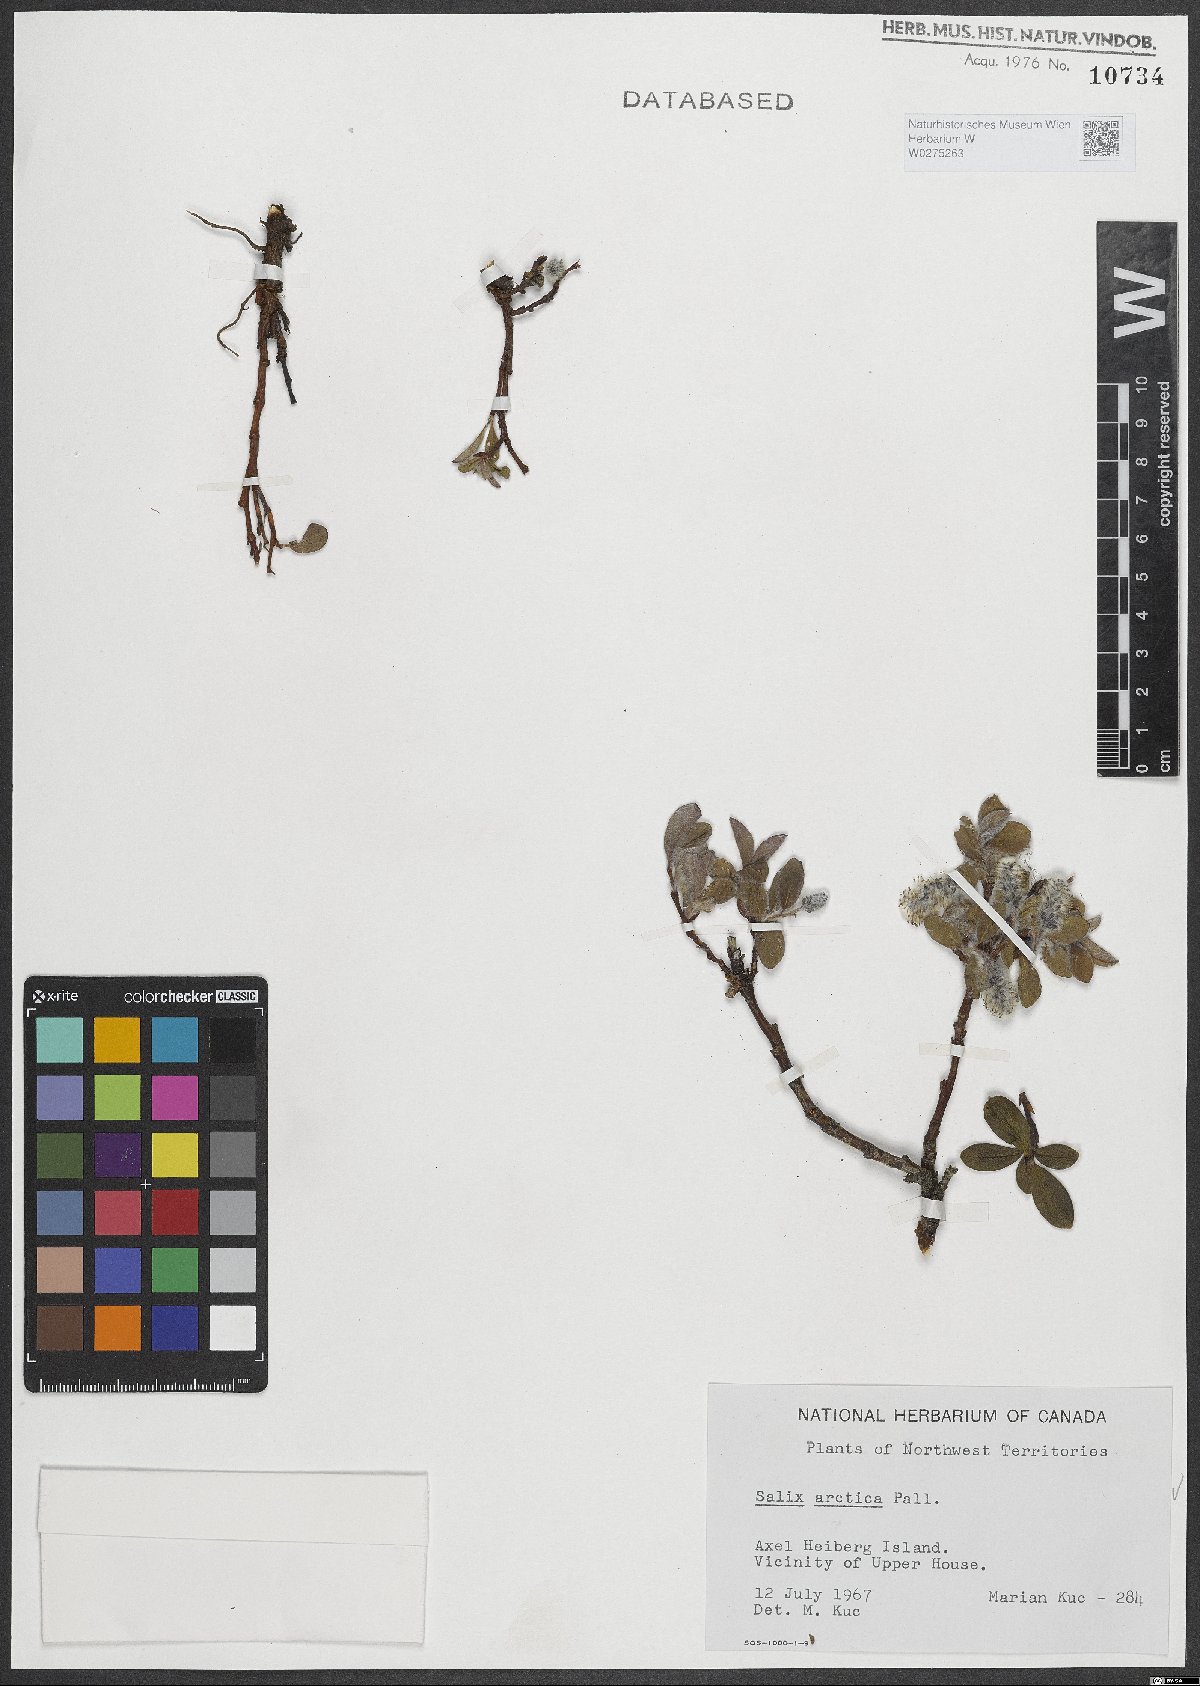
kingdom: Plantae
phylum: Tracheophyta
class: Magnoliopsida
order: Malpighiales
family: Salicaceae
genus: Salix
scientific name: Salix arctica
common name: Arctic willow
